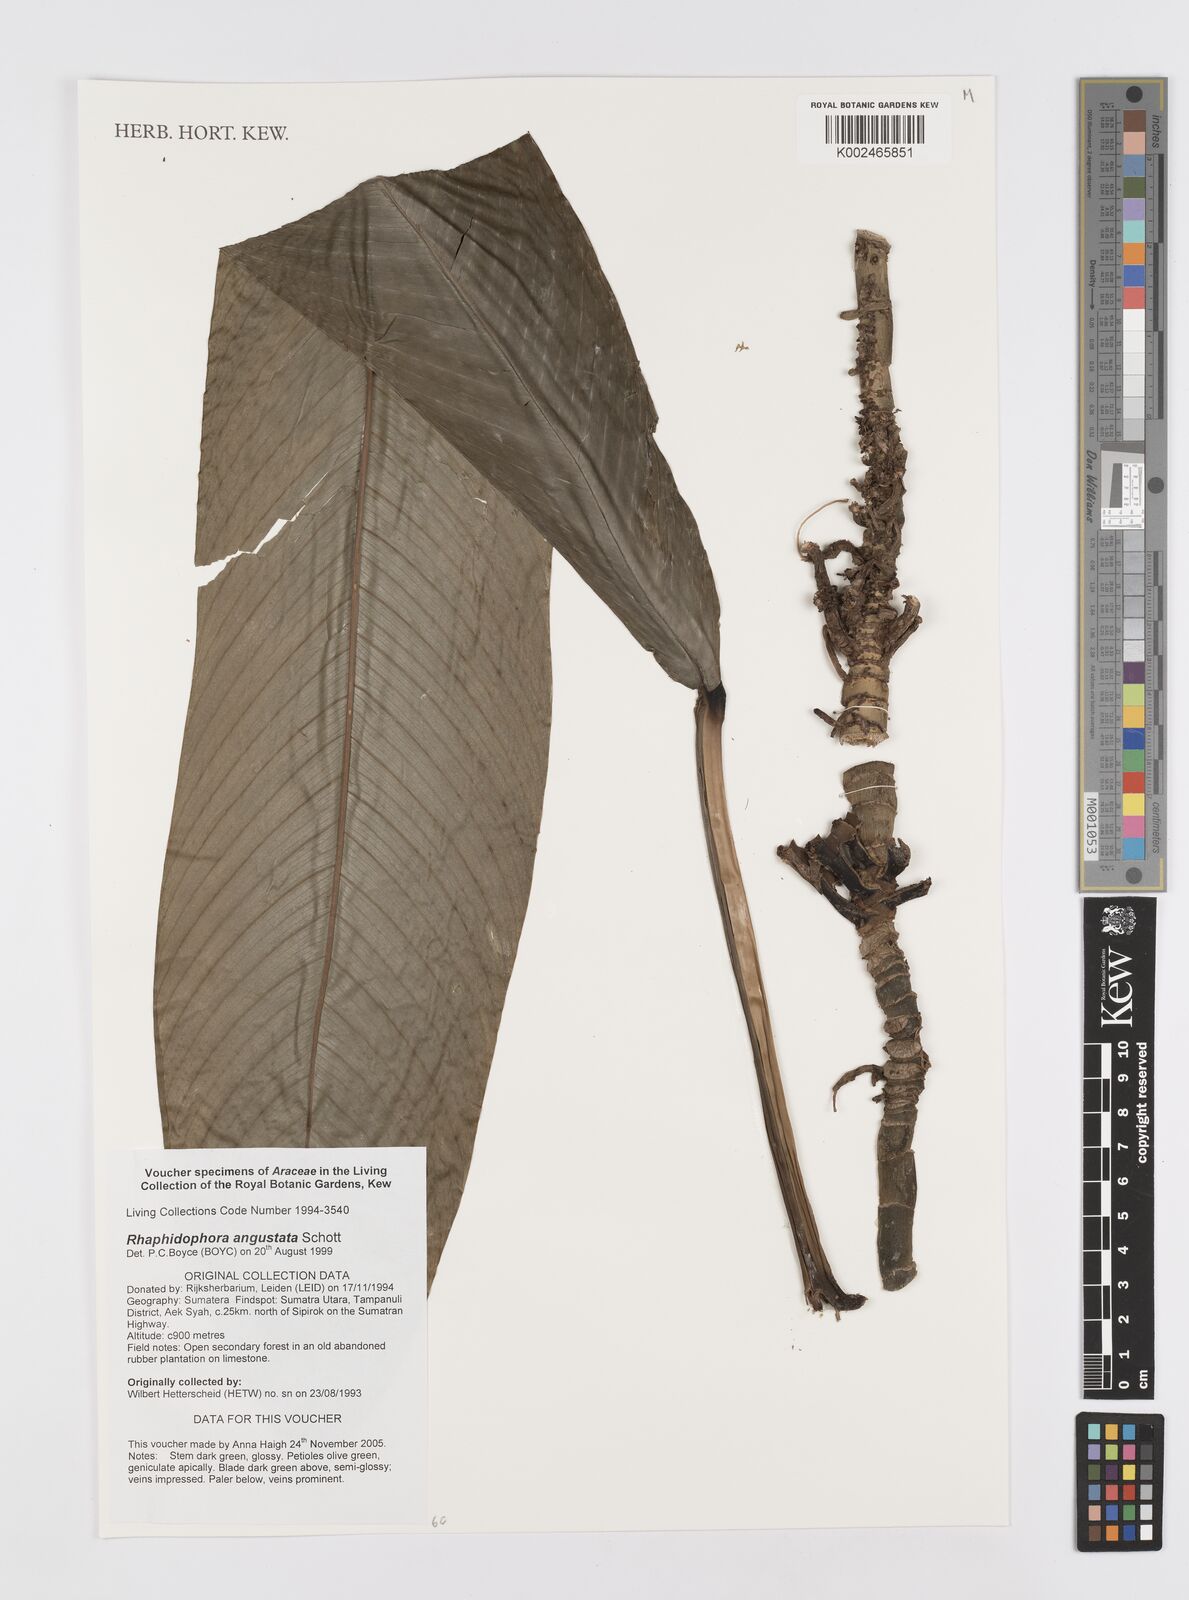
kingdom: Plantae
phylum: Tracheophyta
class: Liliopsida
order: Alismatales
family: Araceae
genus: Rhaphidophora
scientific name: Rhaphidophora angustata
